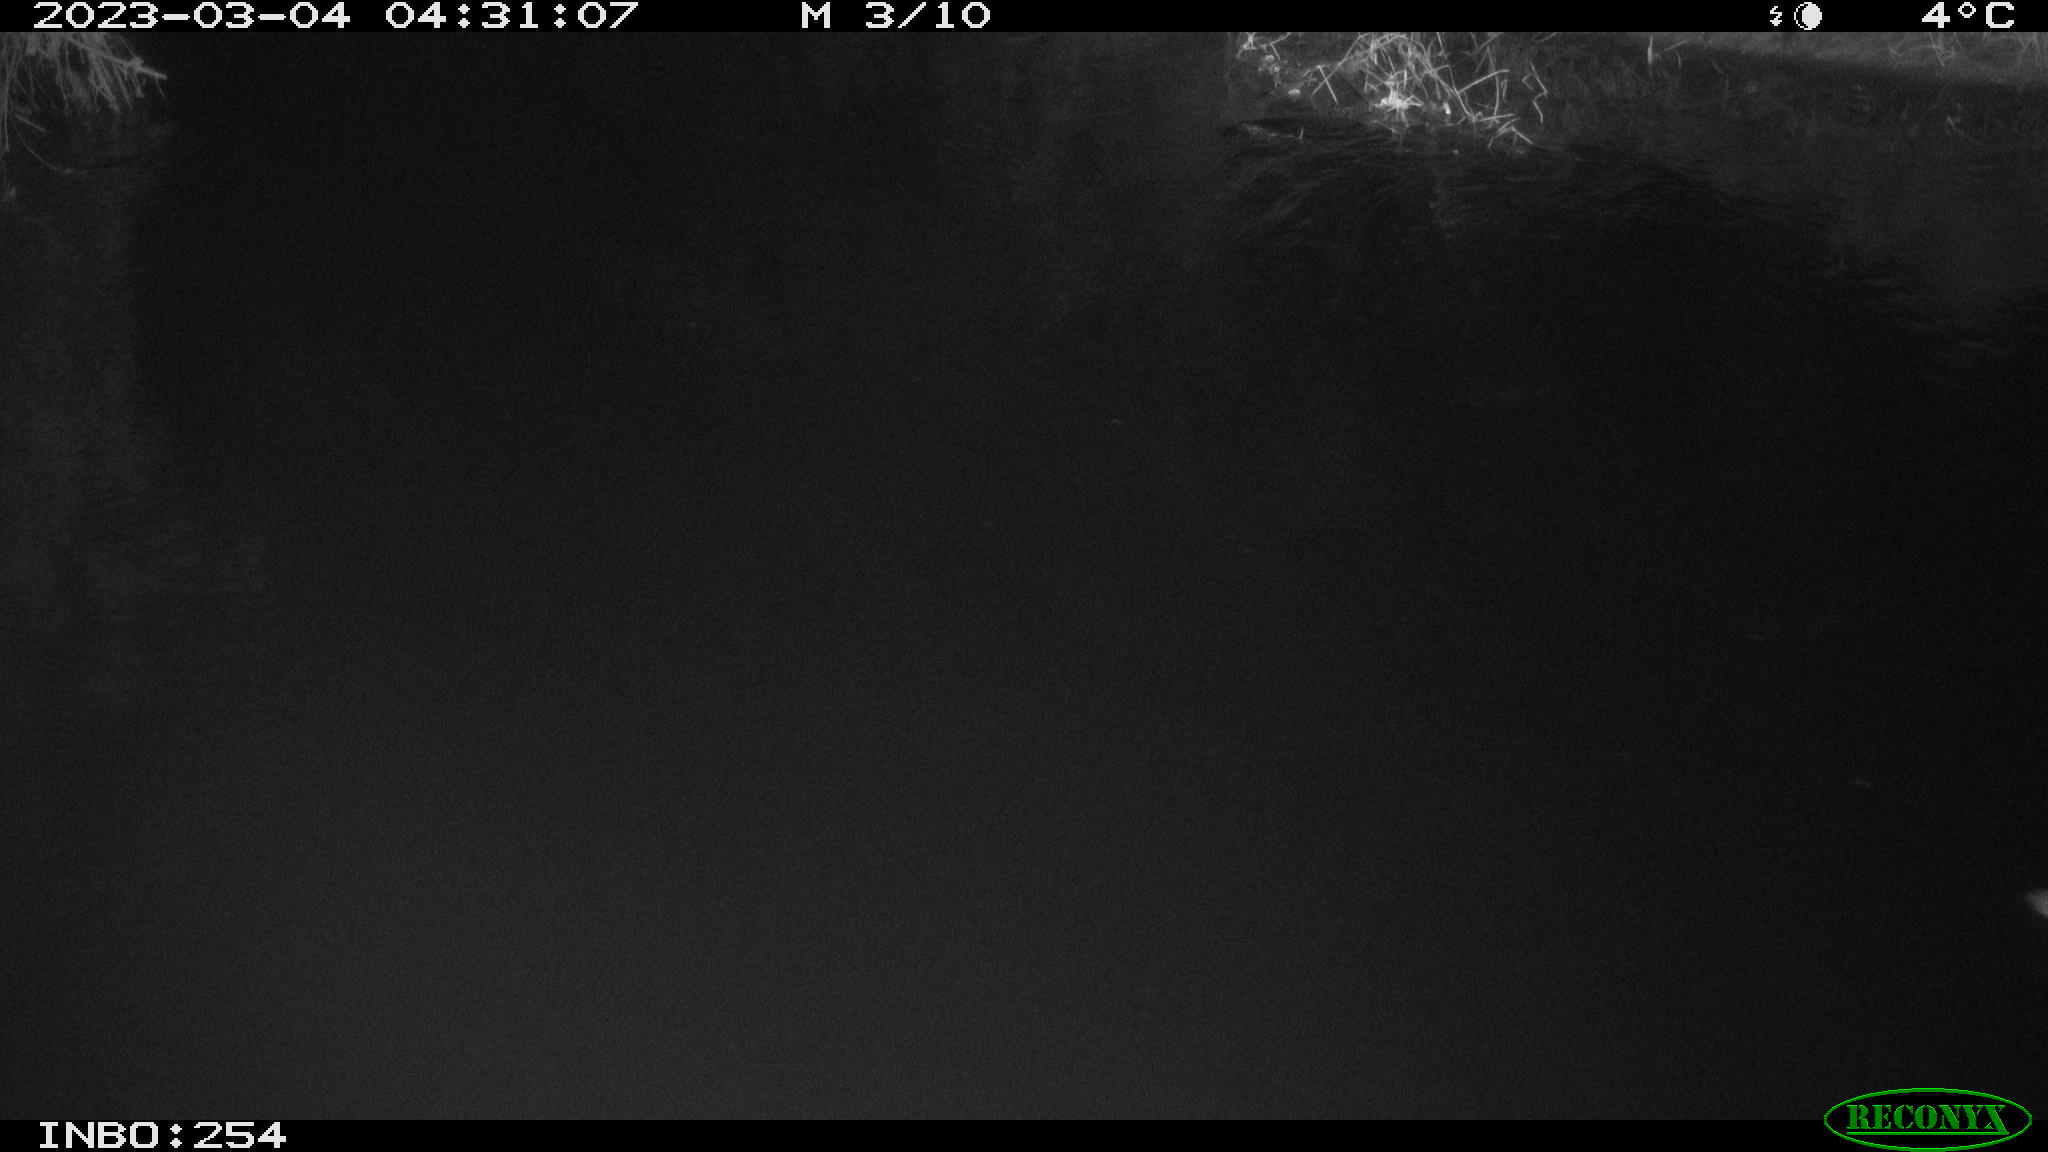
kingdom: Animalia
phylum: Chordata
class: Aves
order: Gruiformes
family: Rallidae
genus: Gallinula
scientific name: Gallinula chloropus
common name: Common moorhen
